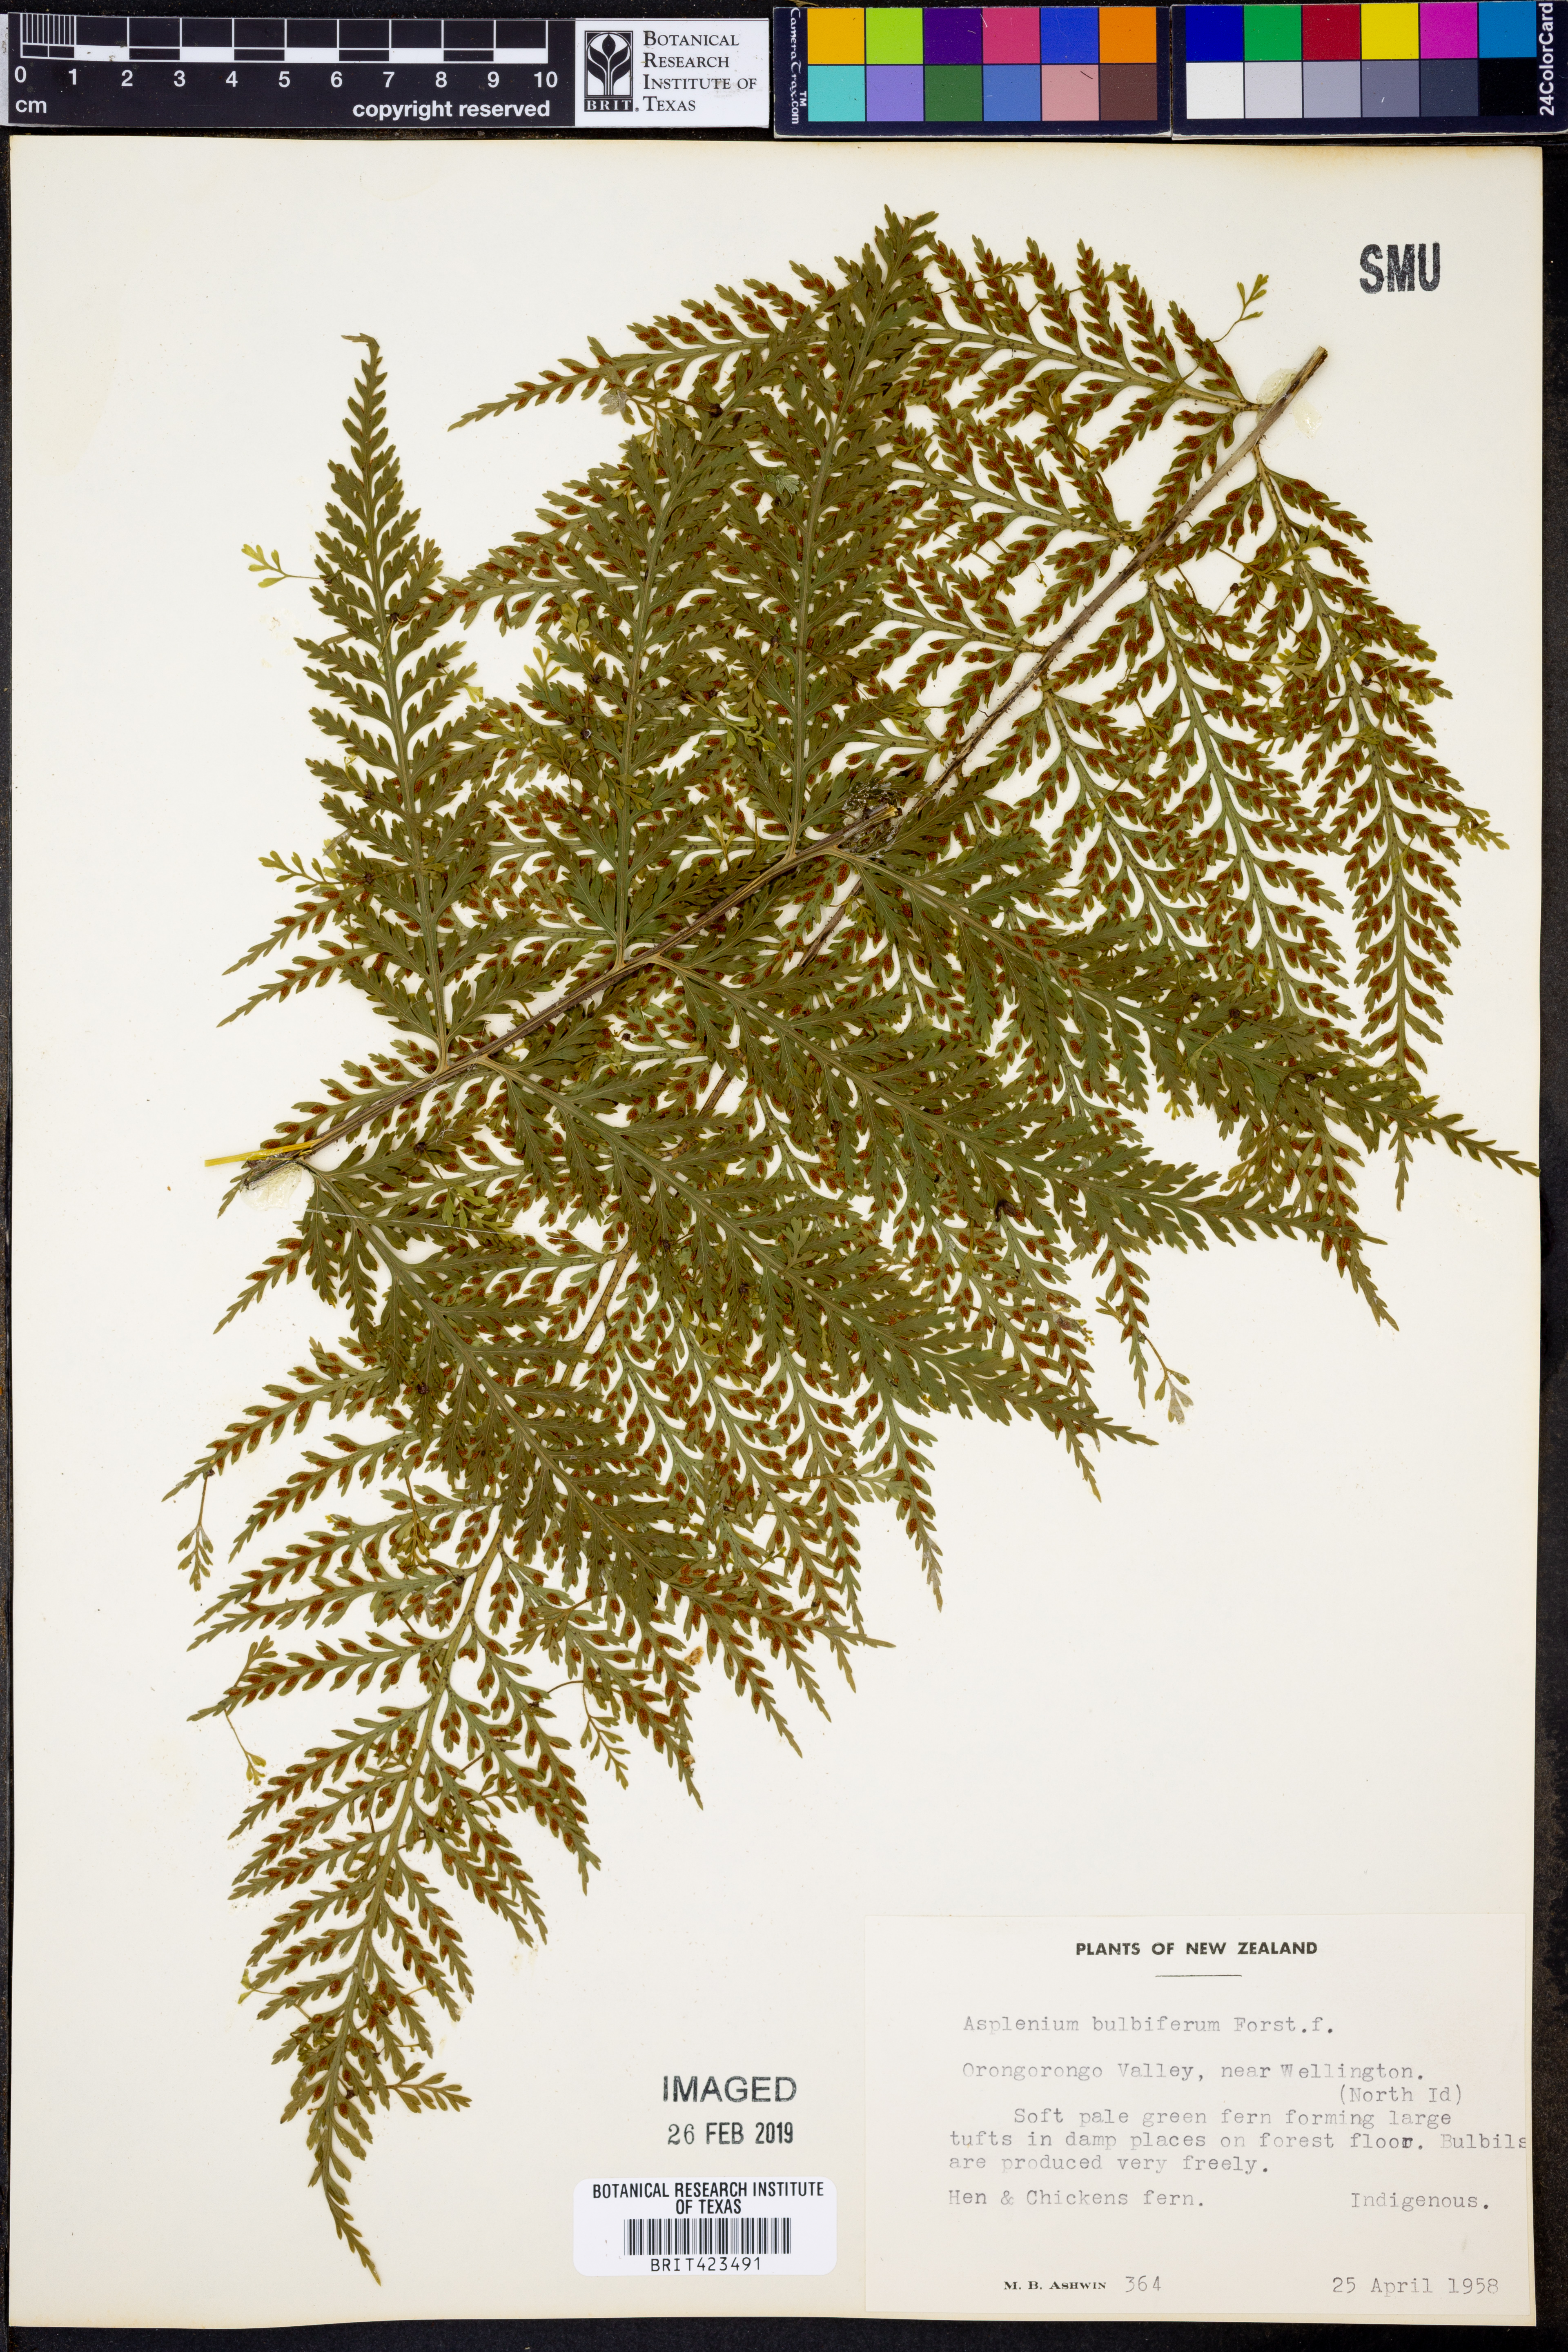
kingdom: Plantae
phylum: Tracheophyta
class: Polypodiopsida
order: Polypodiales
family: Aspleniaceae
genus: Asplenium
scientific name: Asplenium bulbiferum
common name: Mother fern
